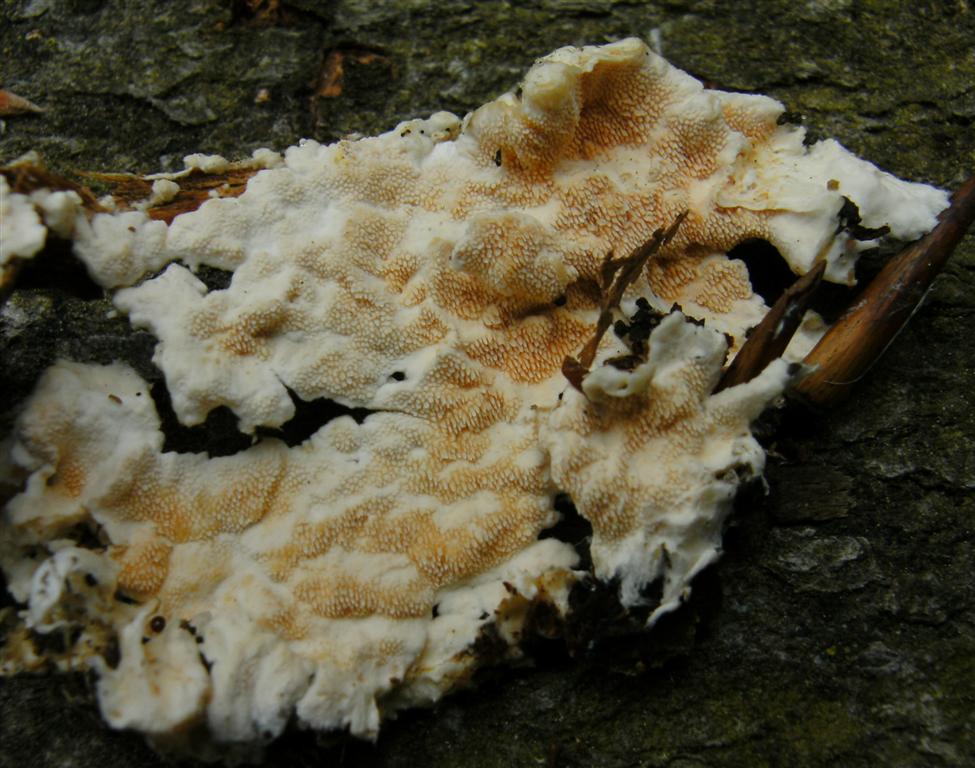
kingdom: Fungi
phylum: Basidiomycota
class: Agaricomycetes
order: Polyporales
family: Steccherinaceae
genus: Steccherinum
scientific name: Steccherinum ochraceum
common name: almindelig skønpig
